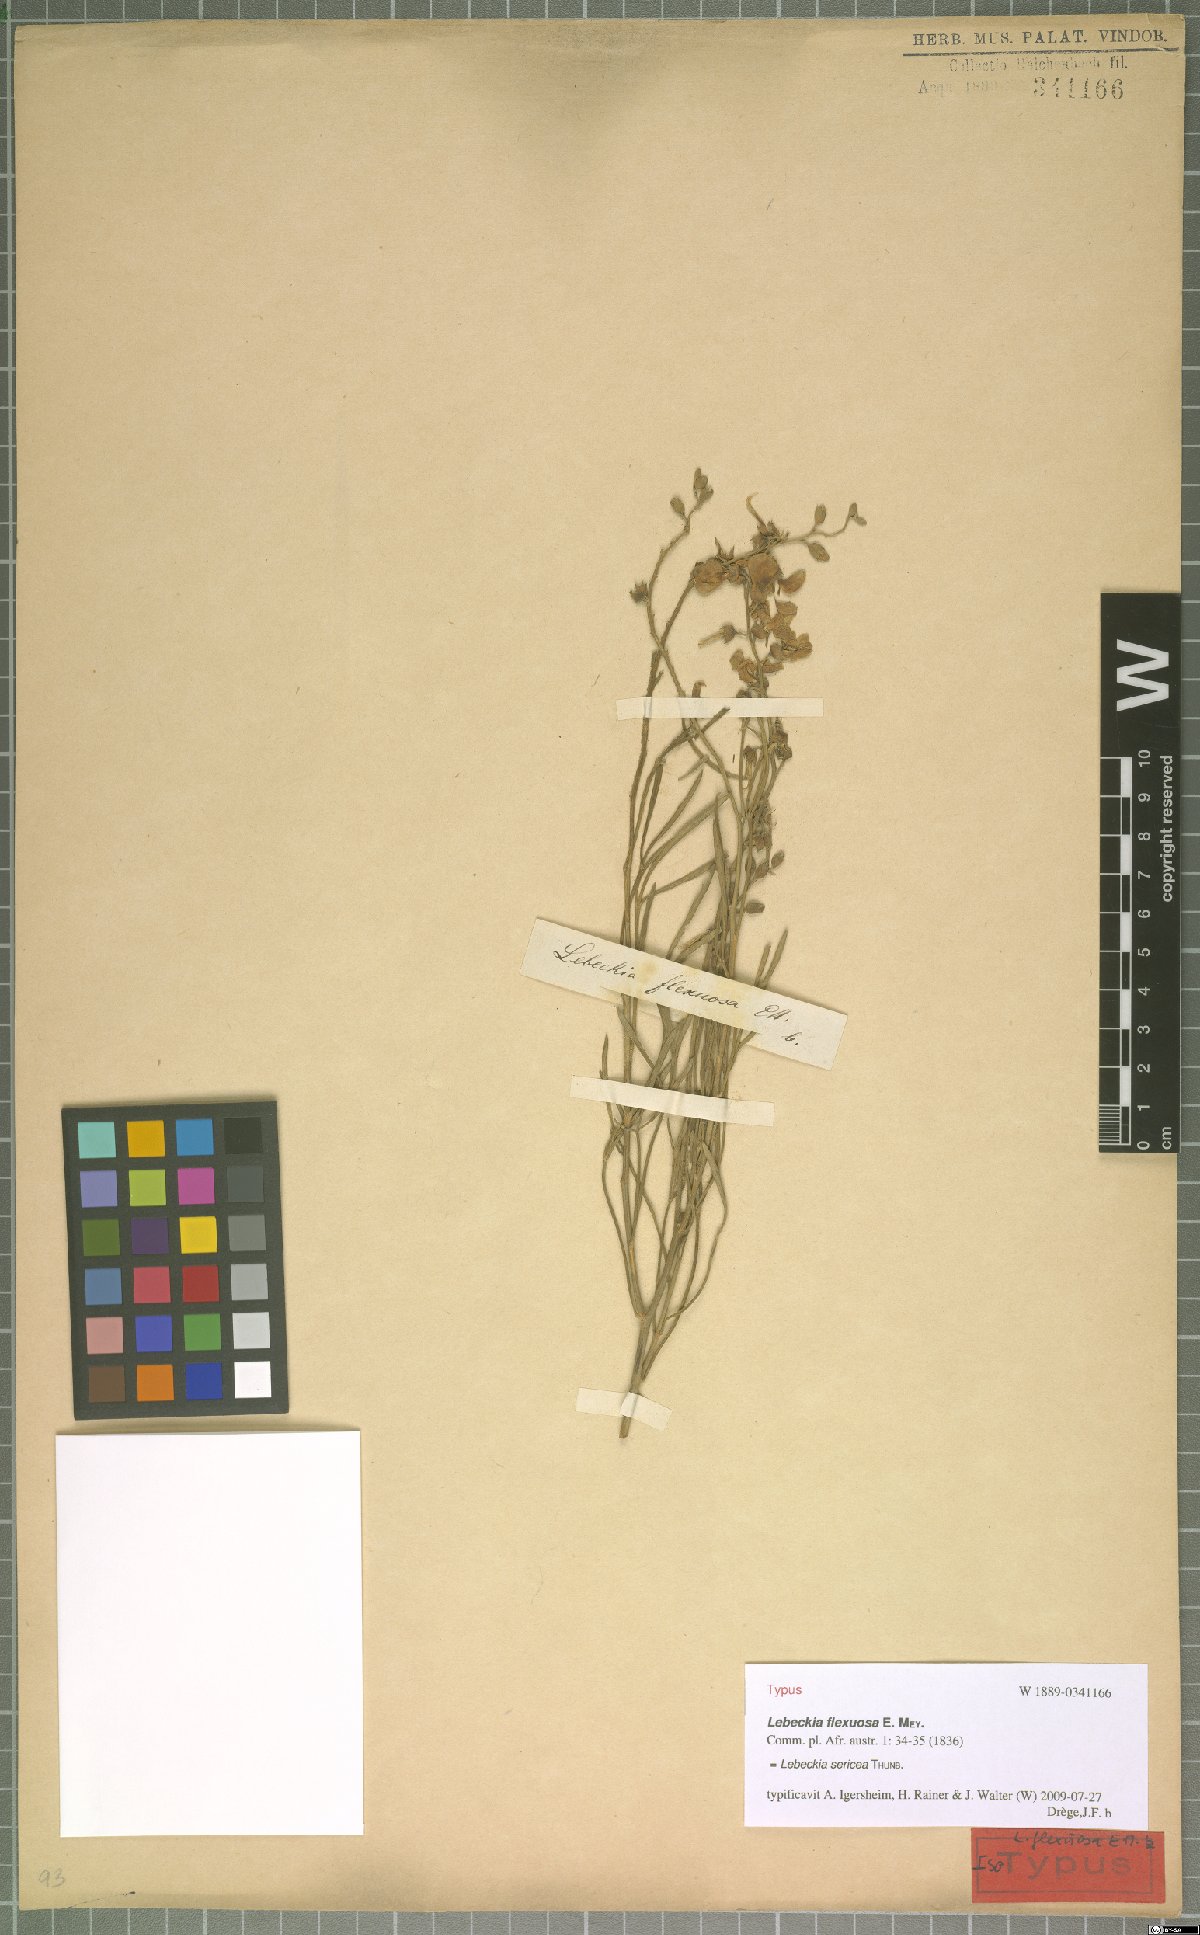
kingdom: Plantae
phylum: Tracheophyta
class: Magnoliopsida
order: Fabales
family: Fabaceae
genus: Calobota
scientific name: Calobota sericea
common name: Silver-pea
